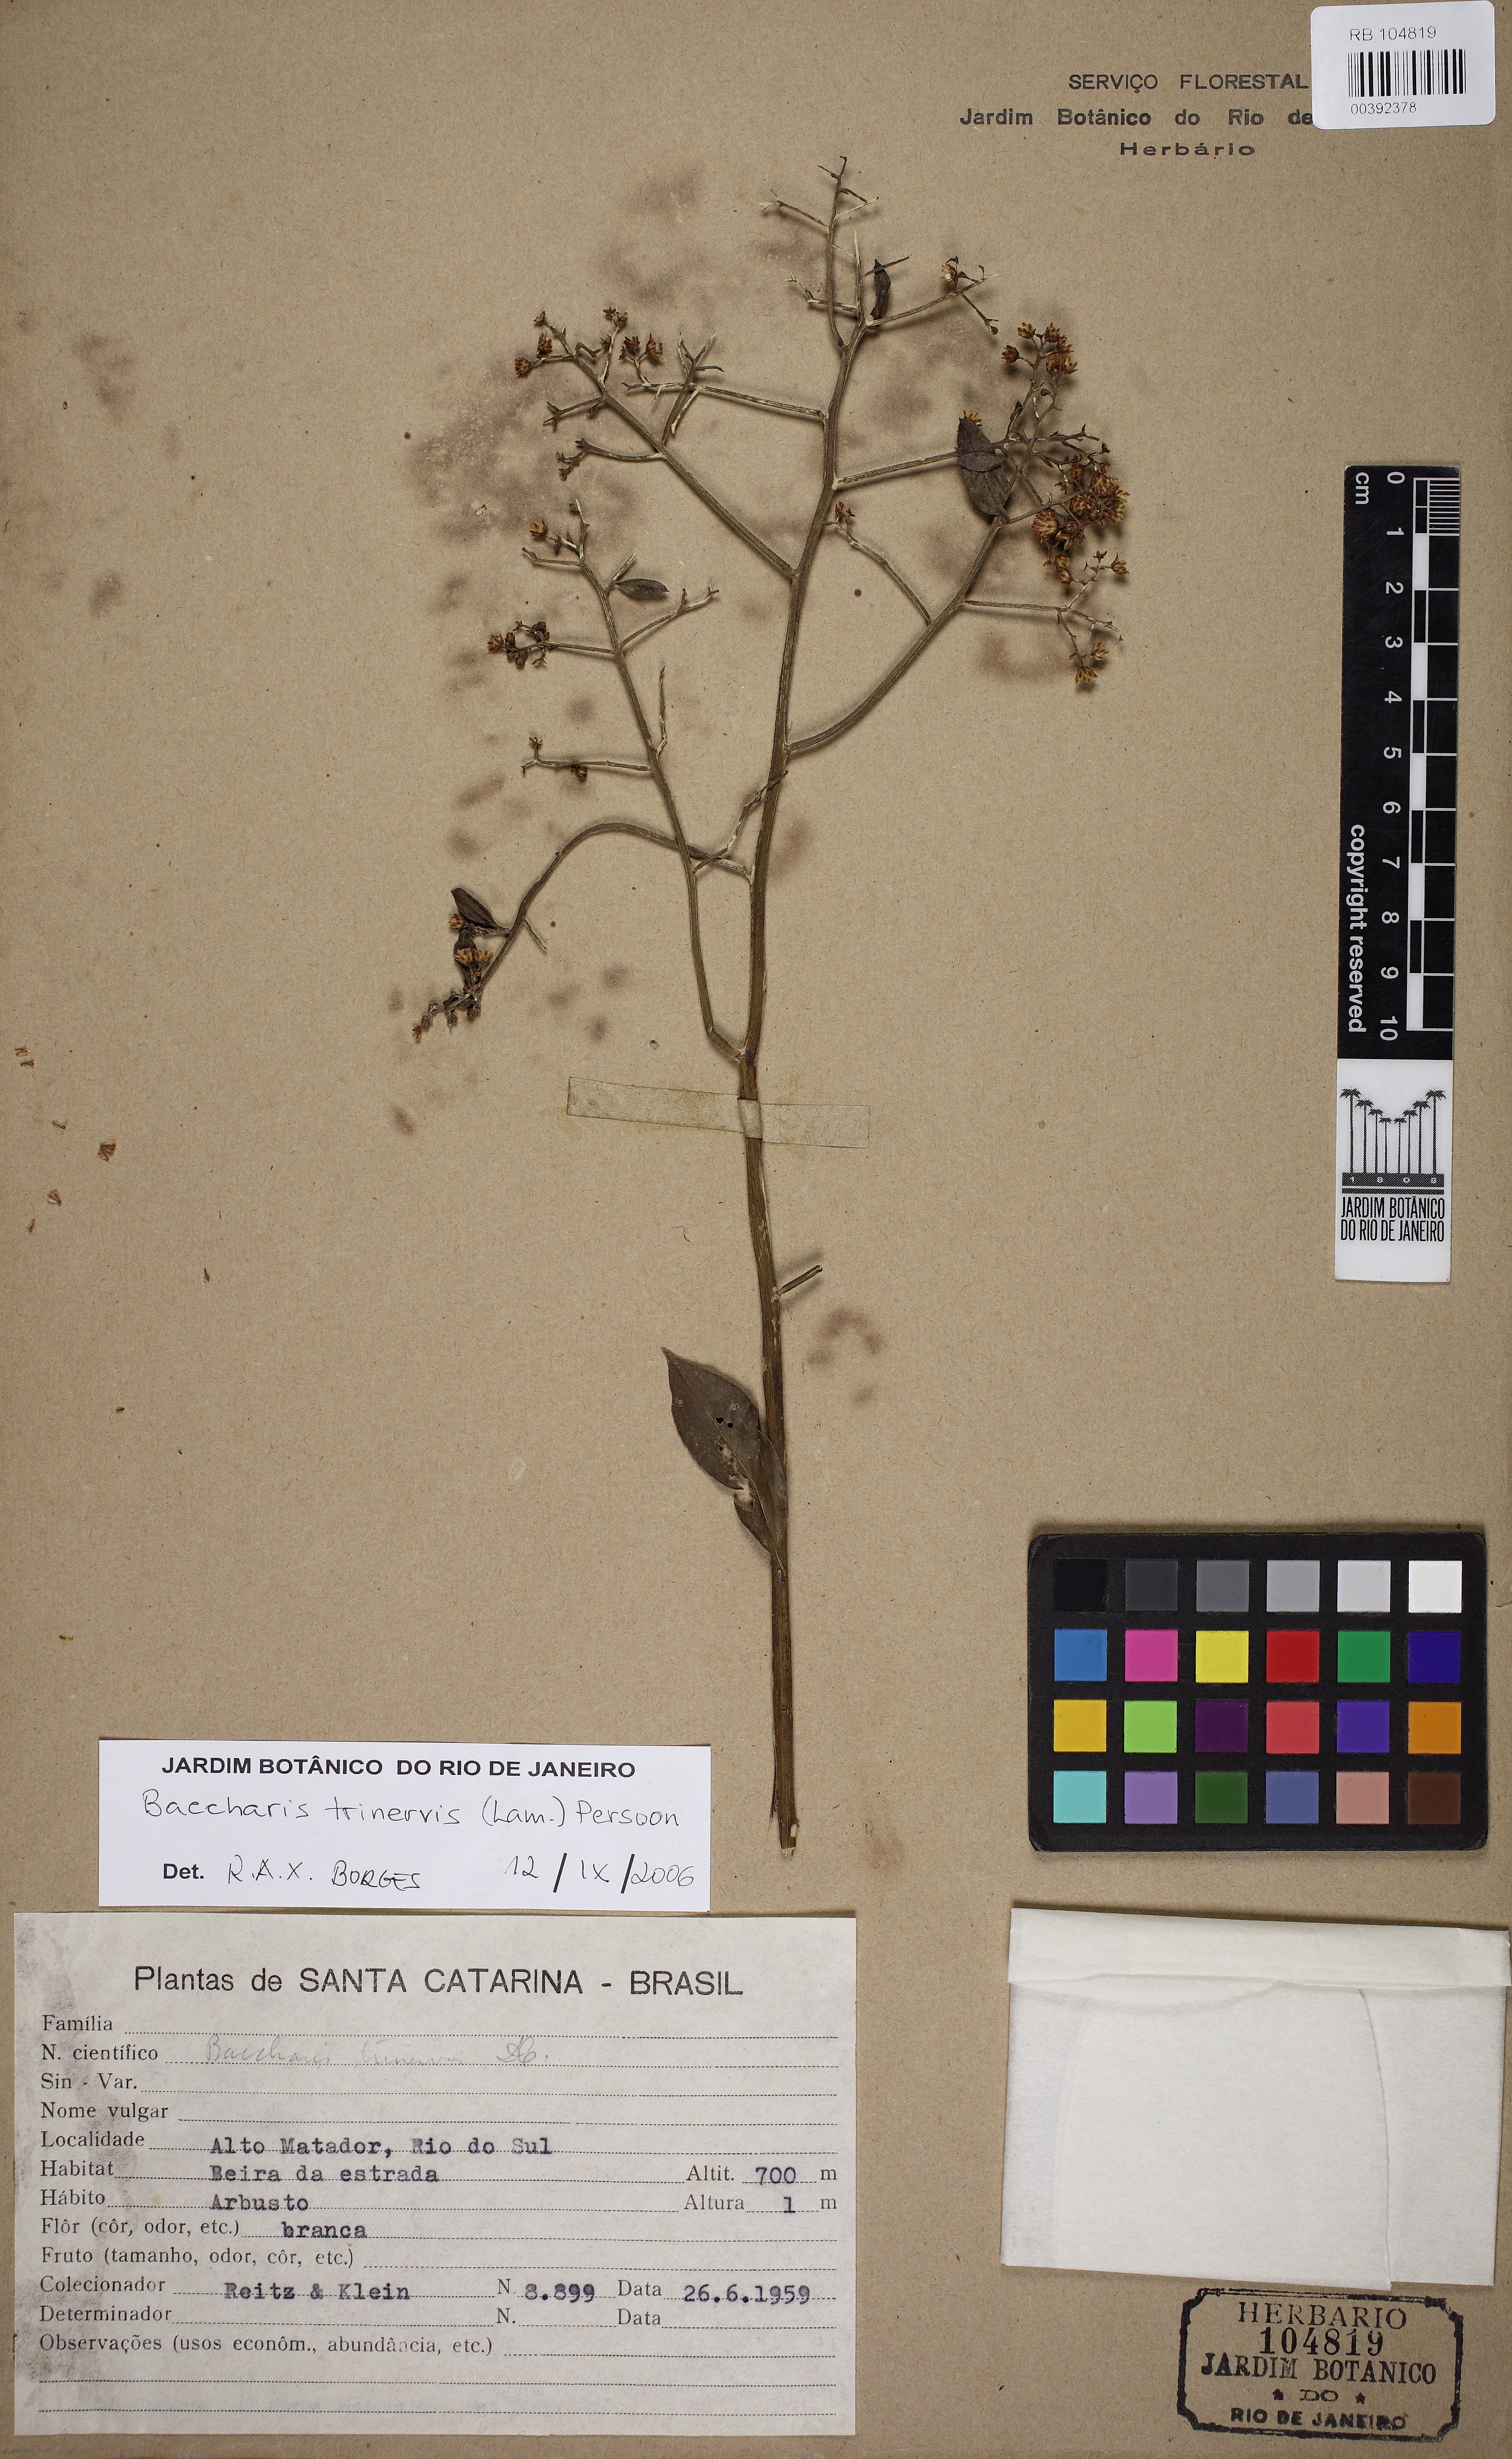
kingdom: Plantae
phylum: Tracheophyta
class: Magnoliopsida
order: Asterales
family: Asteraceae
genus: Baccharis
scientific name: Baccharis trinervis
